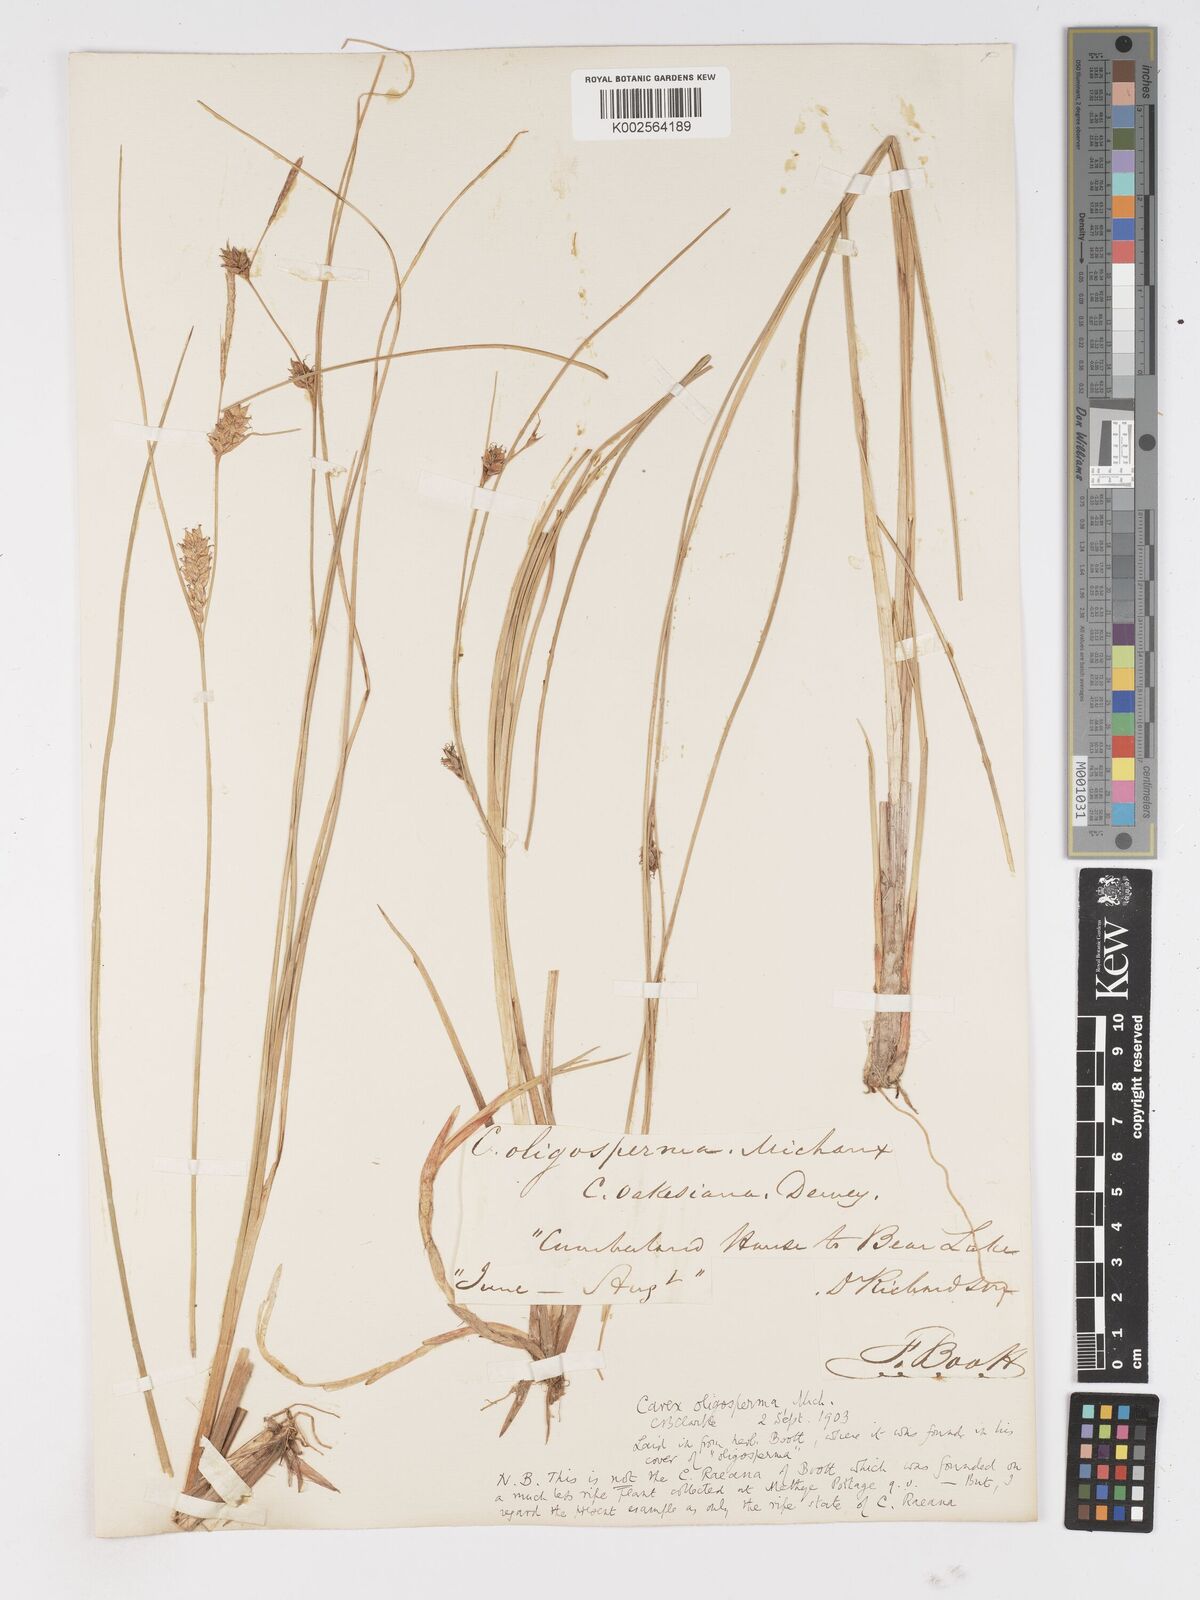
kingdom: Plantae
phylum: Tracheophyta
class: Liliopsida
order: Poales
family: Cyperaceae
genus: Carex
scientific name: Carex oligosperma
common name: Few-seed sedge
